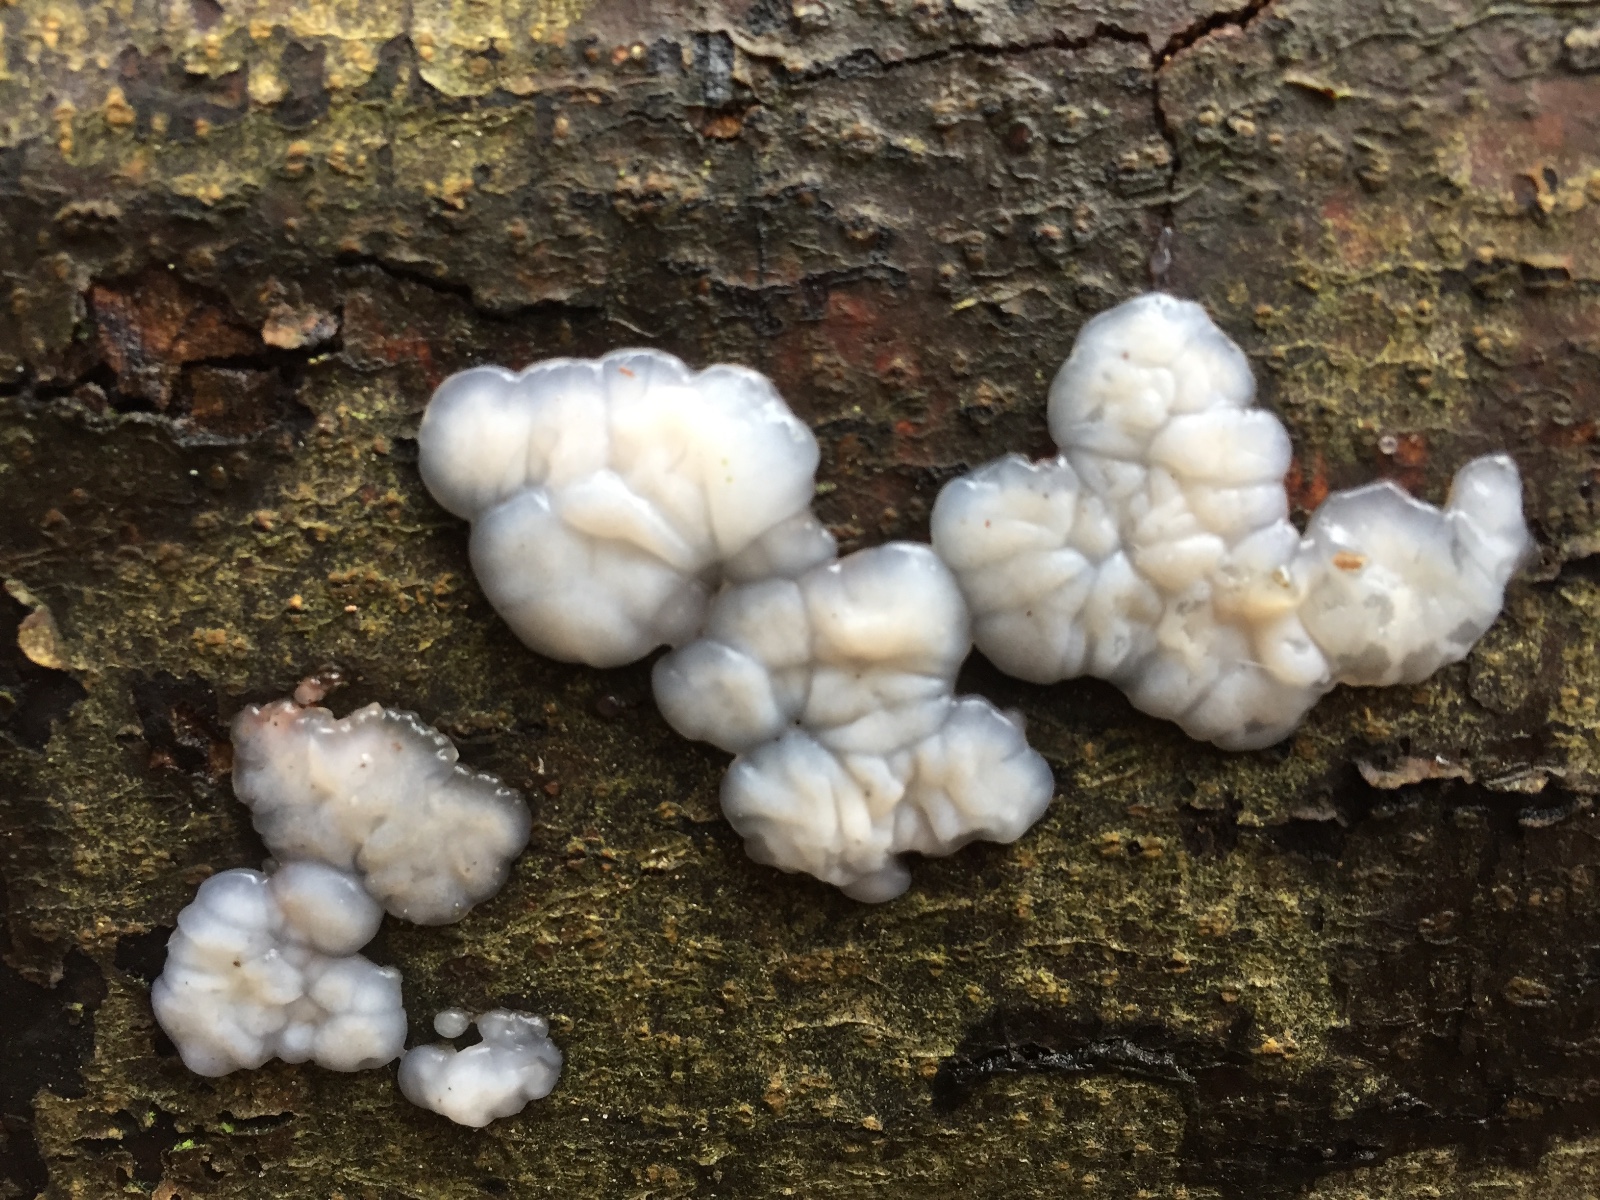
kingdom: Fungi
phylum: Basidiomycota
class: Agaricomycetes
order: Auriculariales
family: Auriculariaceae
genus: Exidia
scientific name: Exidia thuretiana
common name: hvidlig bævretop
